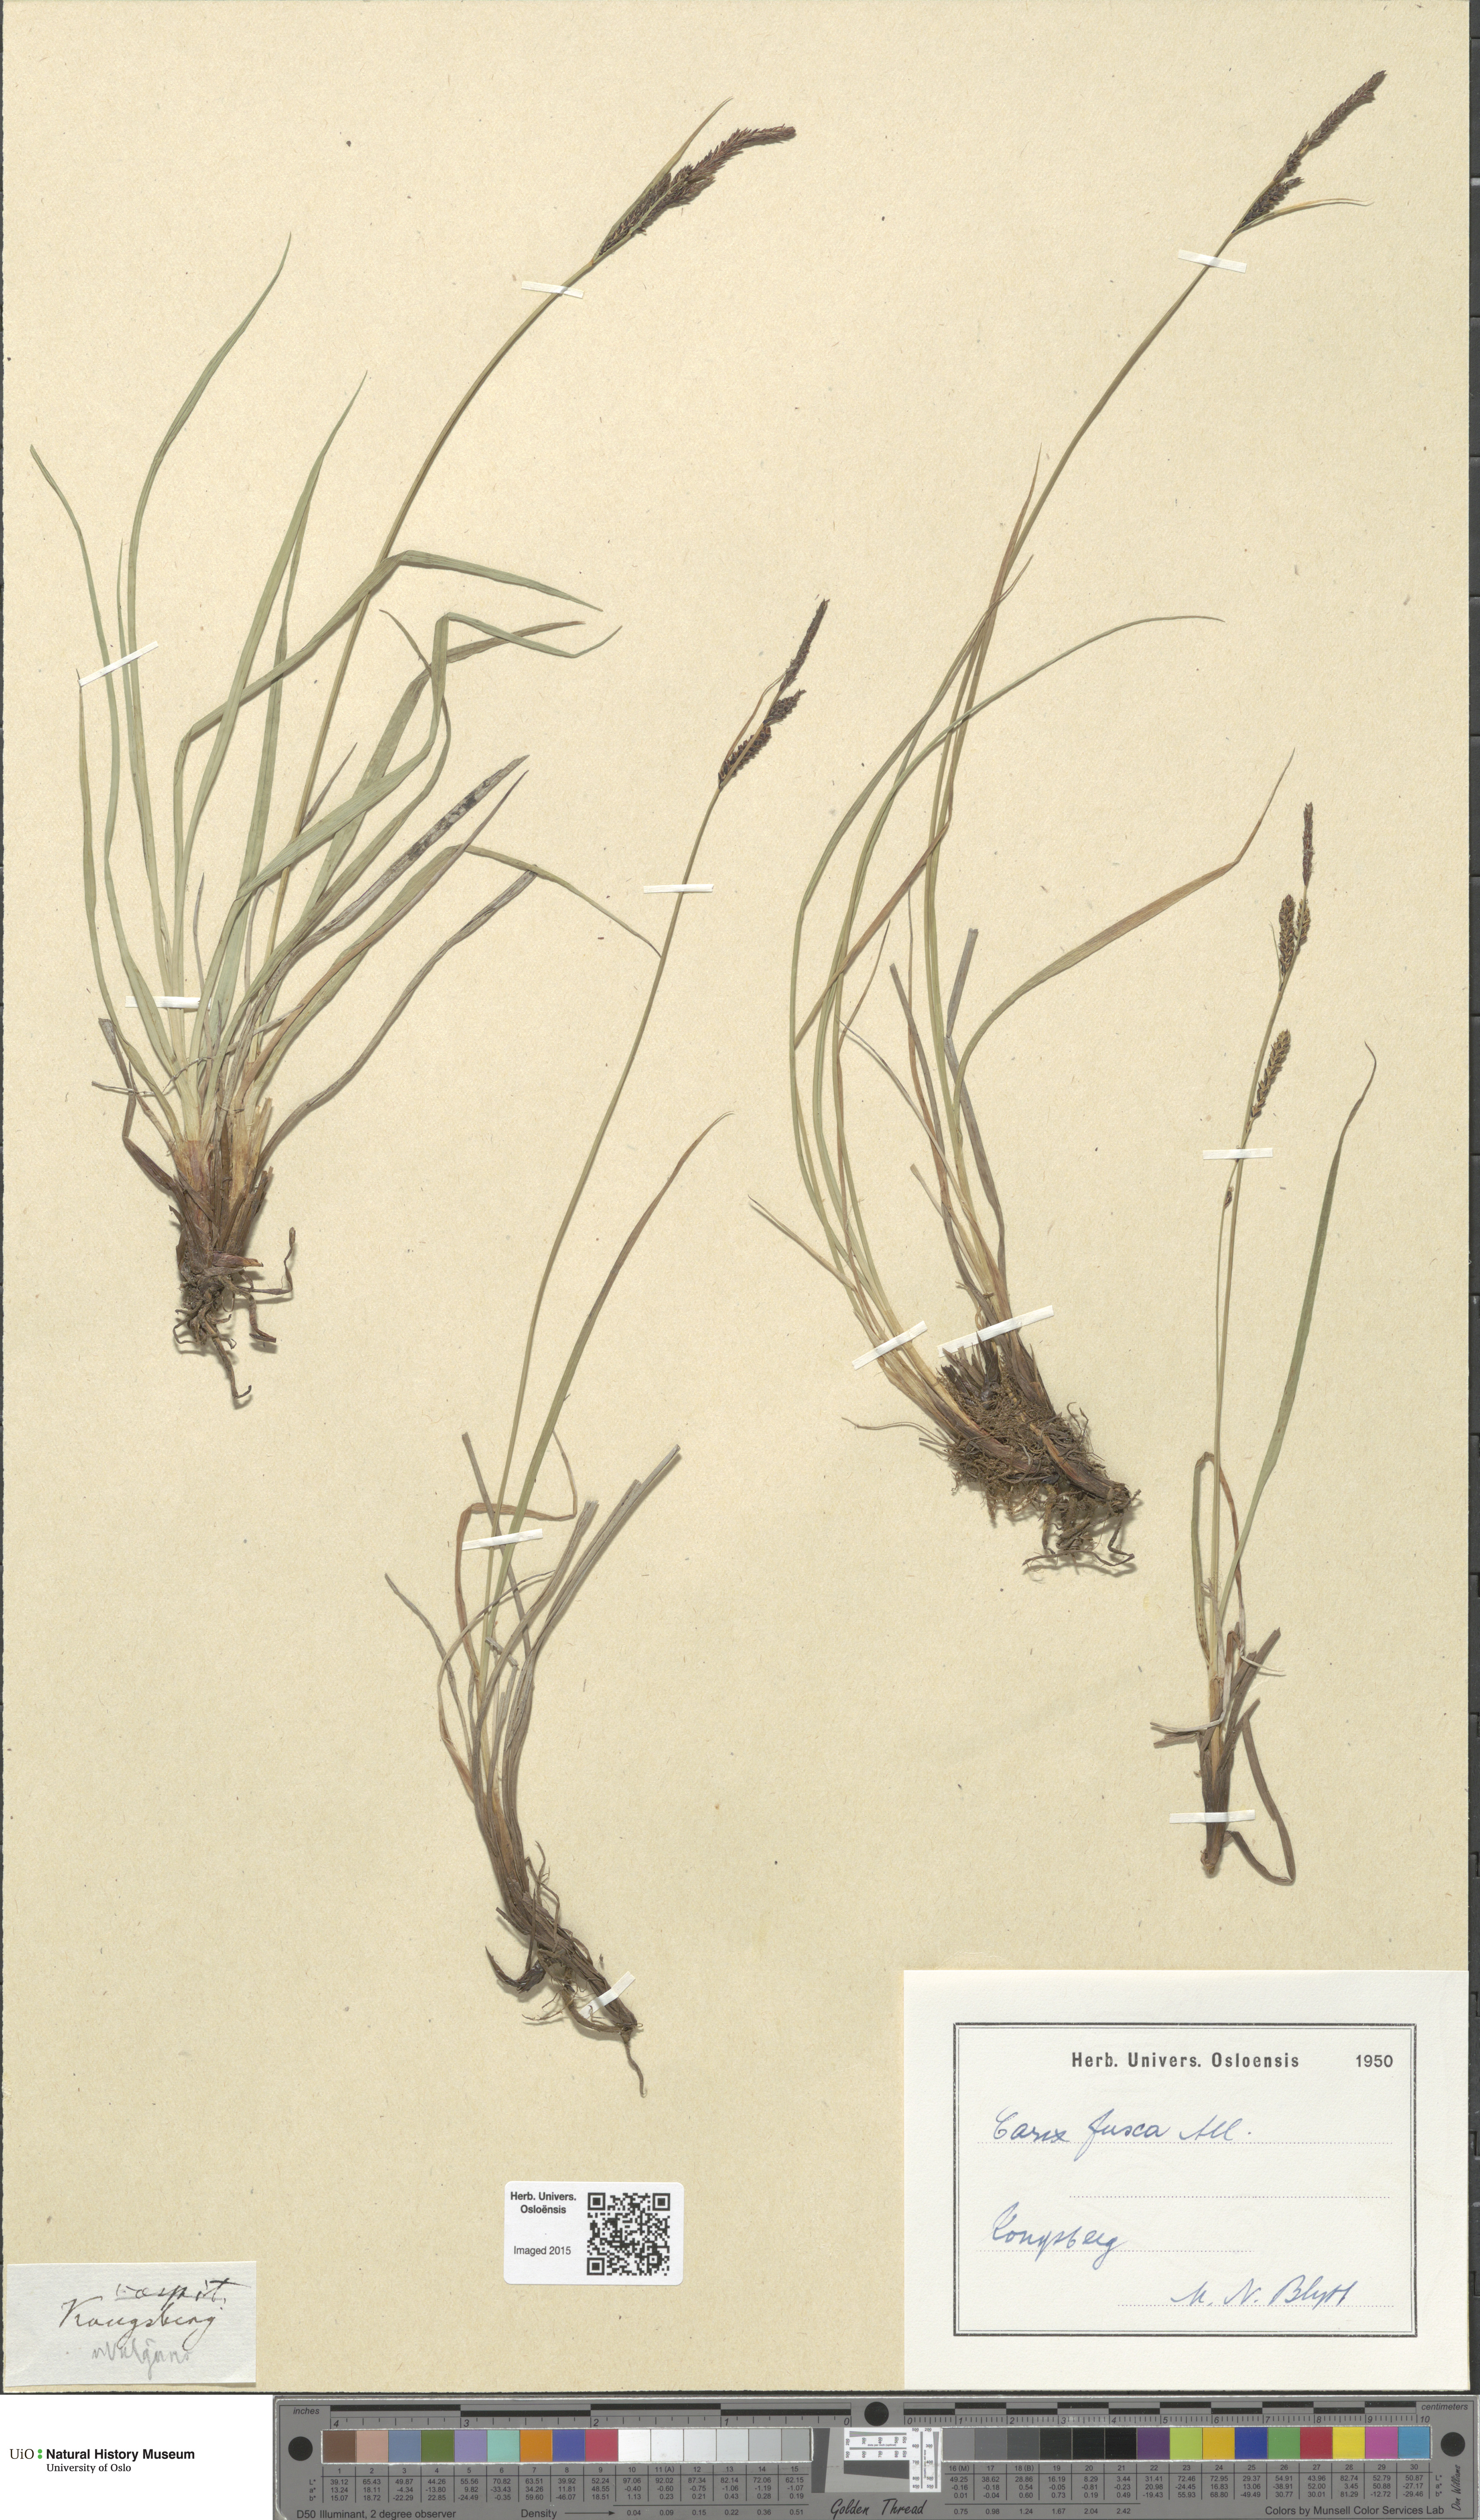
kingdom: Plantae
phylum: Tracheophyta
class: Liliopsida
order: Poales
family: Cyperaceae
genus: Carex
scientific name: Carex nigra
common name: Common sedge
